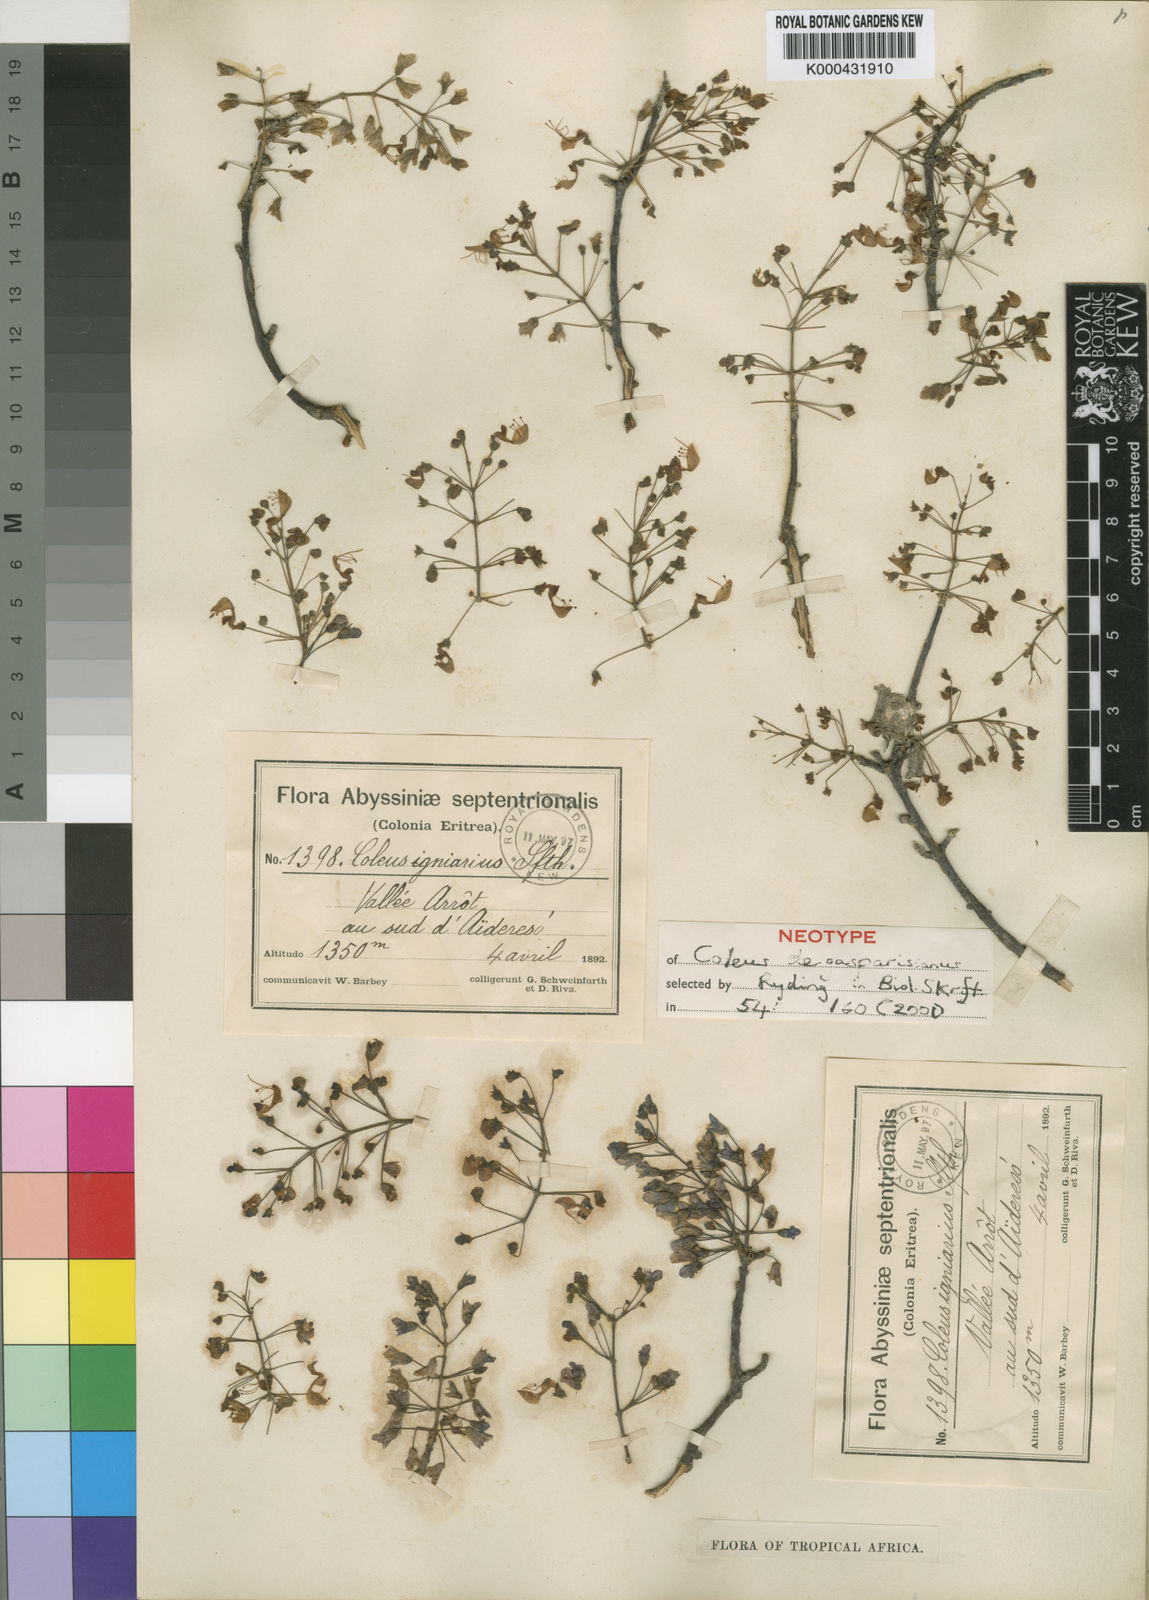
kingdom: Plantae
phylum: Tracheophyta
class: Magnoliopsida
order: Lamiales
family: Lamiaceae
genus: Coleus
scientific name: Coleus igniarius
